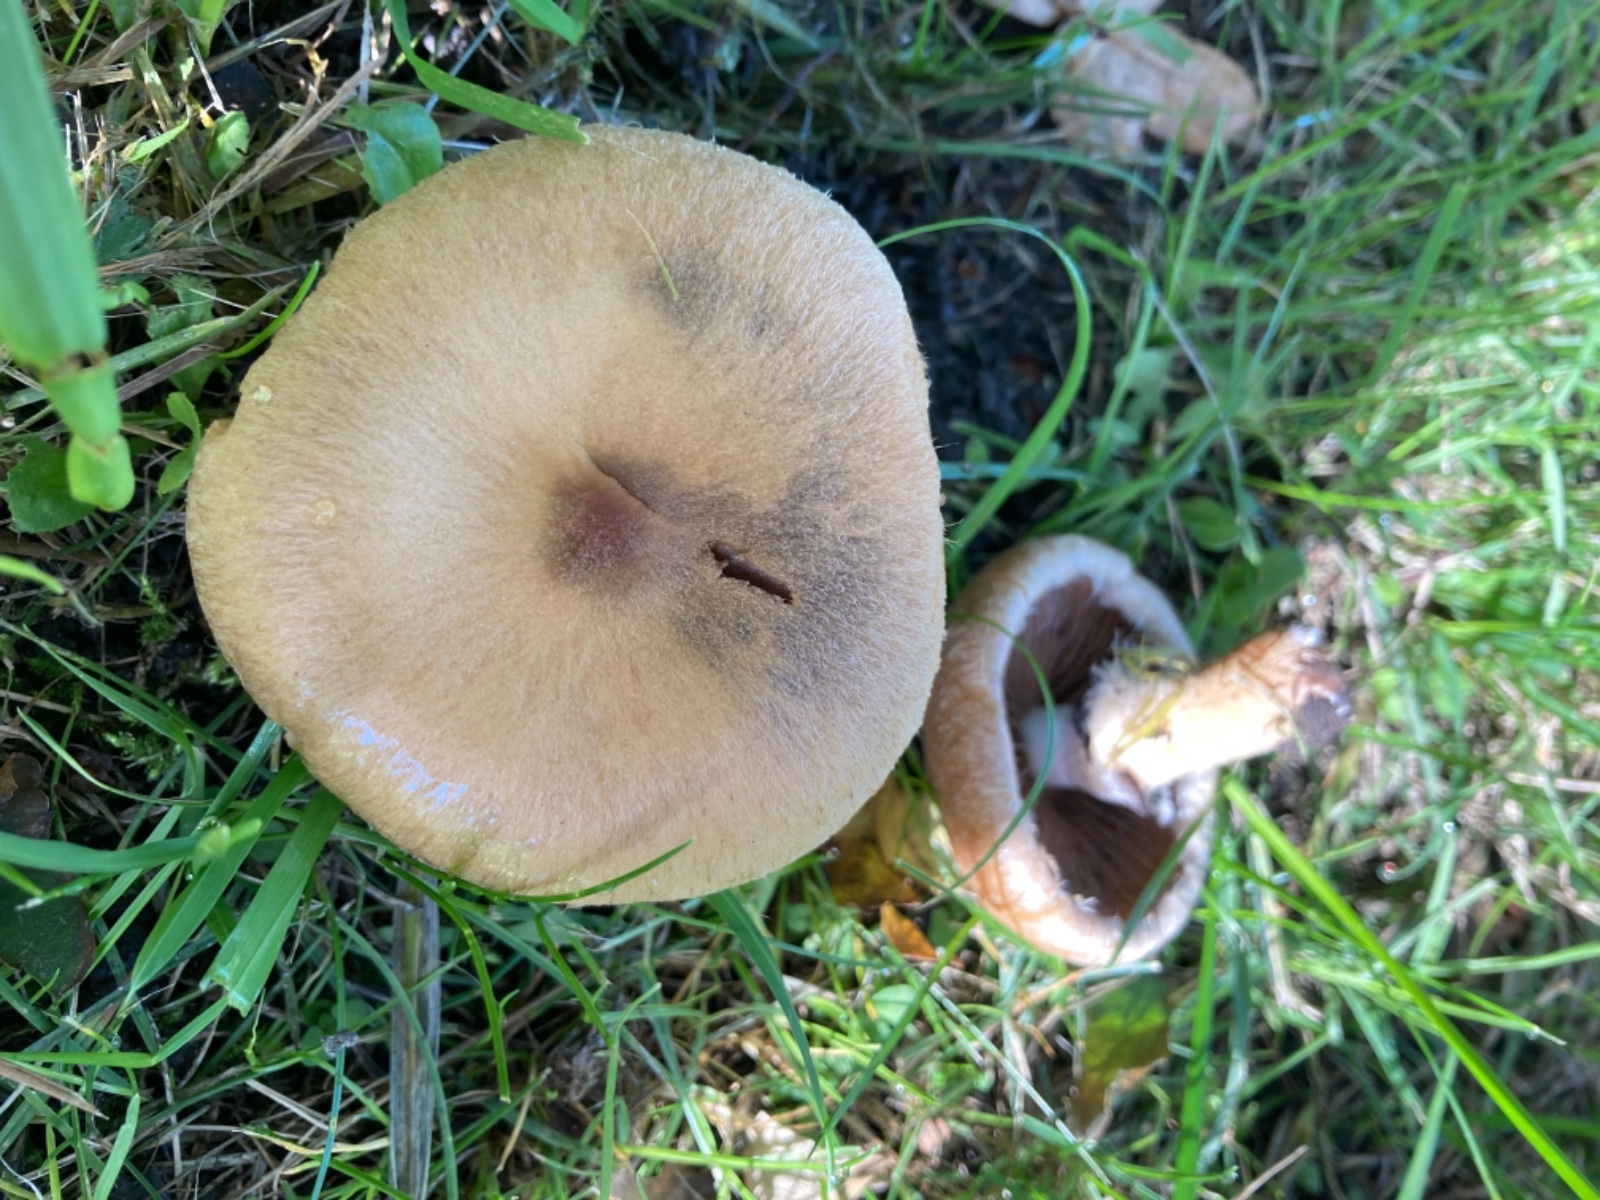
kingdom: Fungi
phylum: Basidiomycota
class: Agaricomycetes
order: Agaricales
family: Psathyrellaceae
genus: Lacrymaria
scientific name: Lacrymaria lacrymabunda
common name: grædende mørkhat
